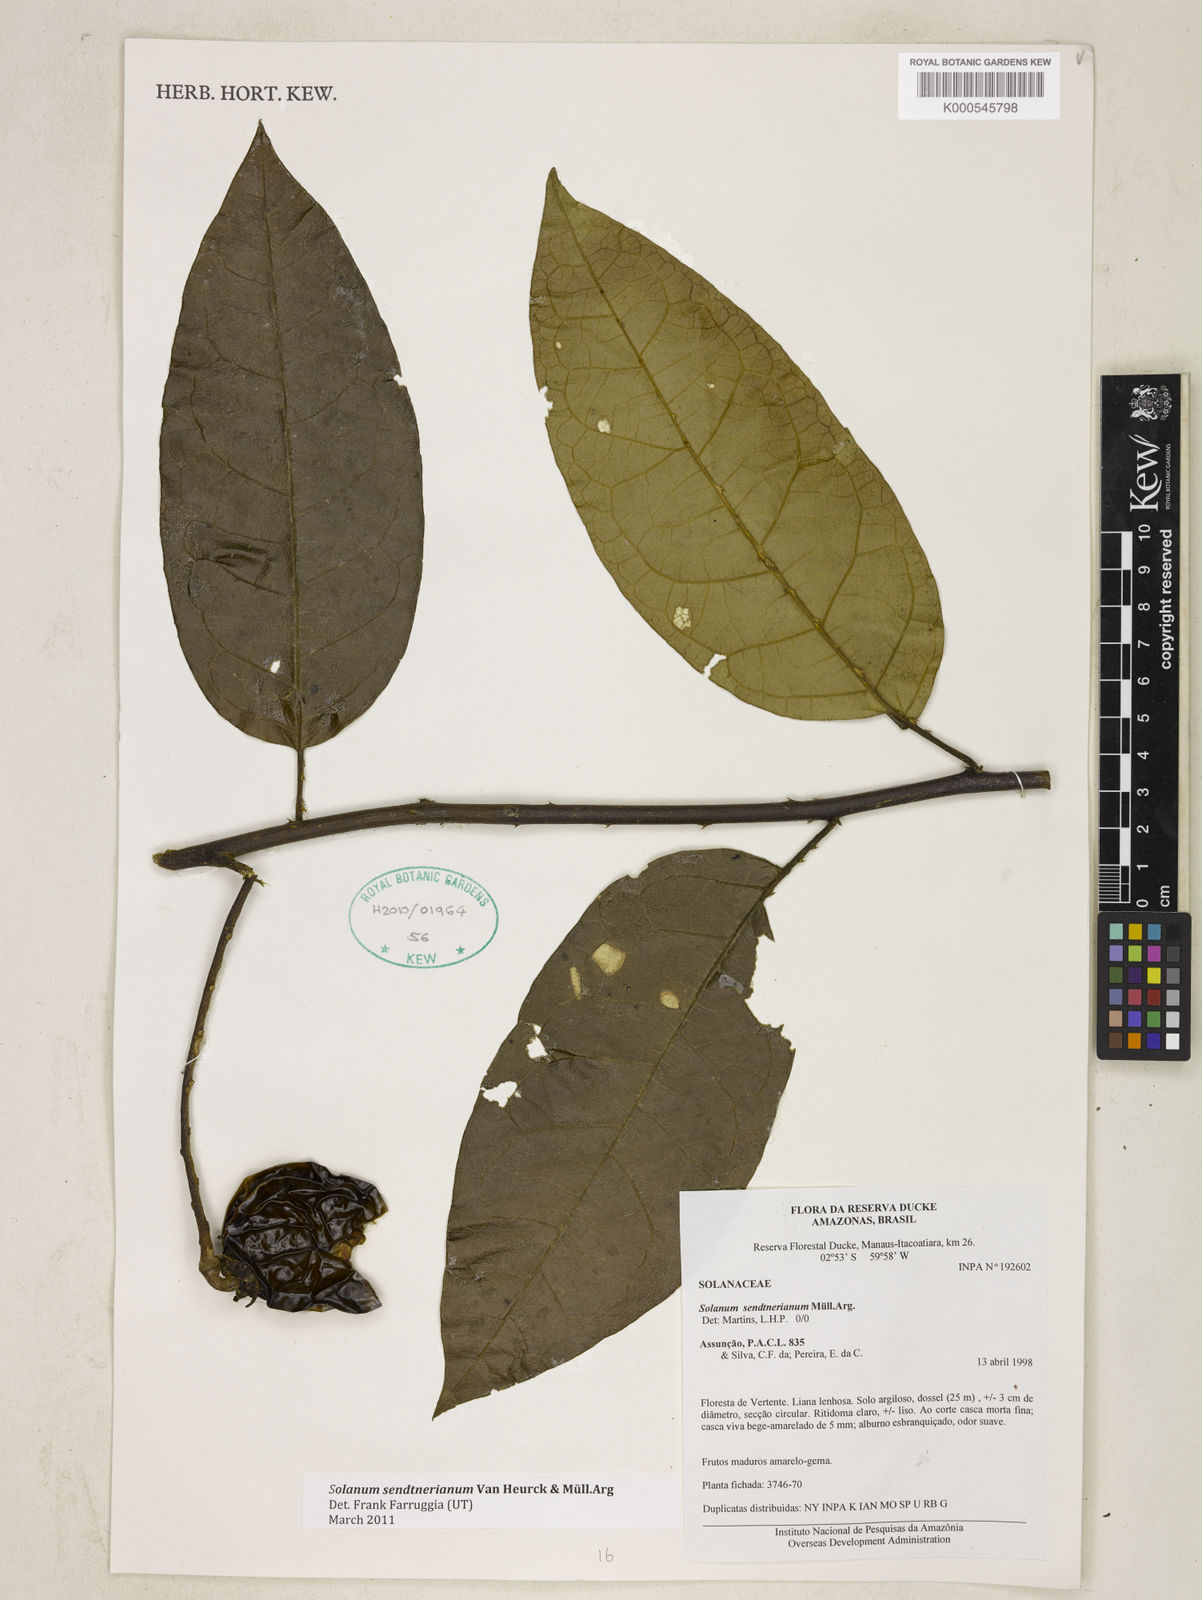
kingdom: Plantae
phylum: Tracheophyta
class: Magnoliopsida
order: Solanales
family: Solanaceae
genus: Solanum
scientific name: Solanum
